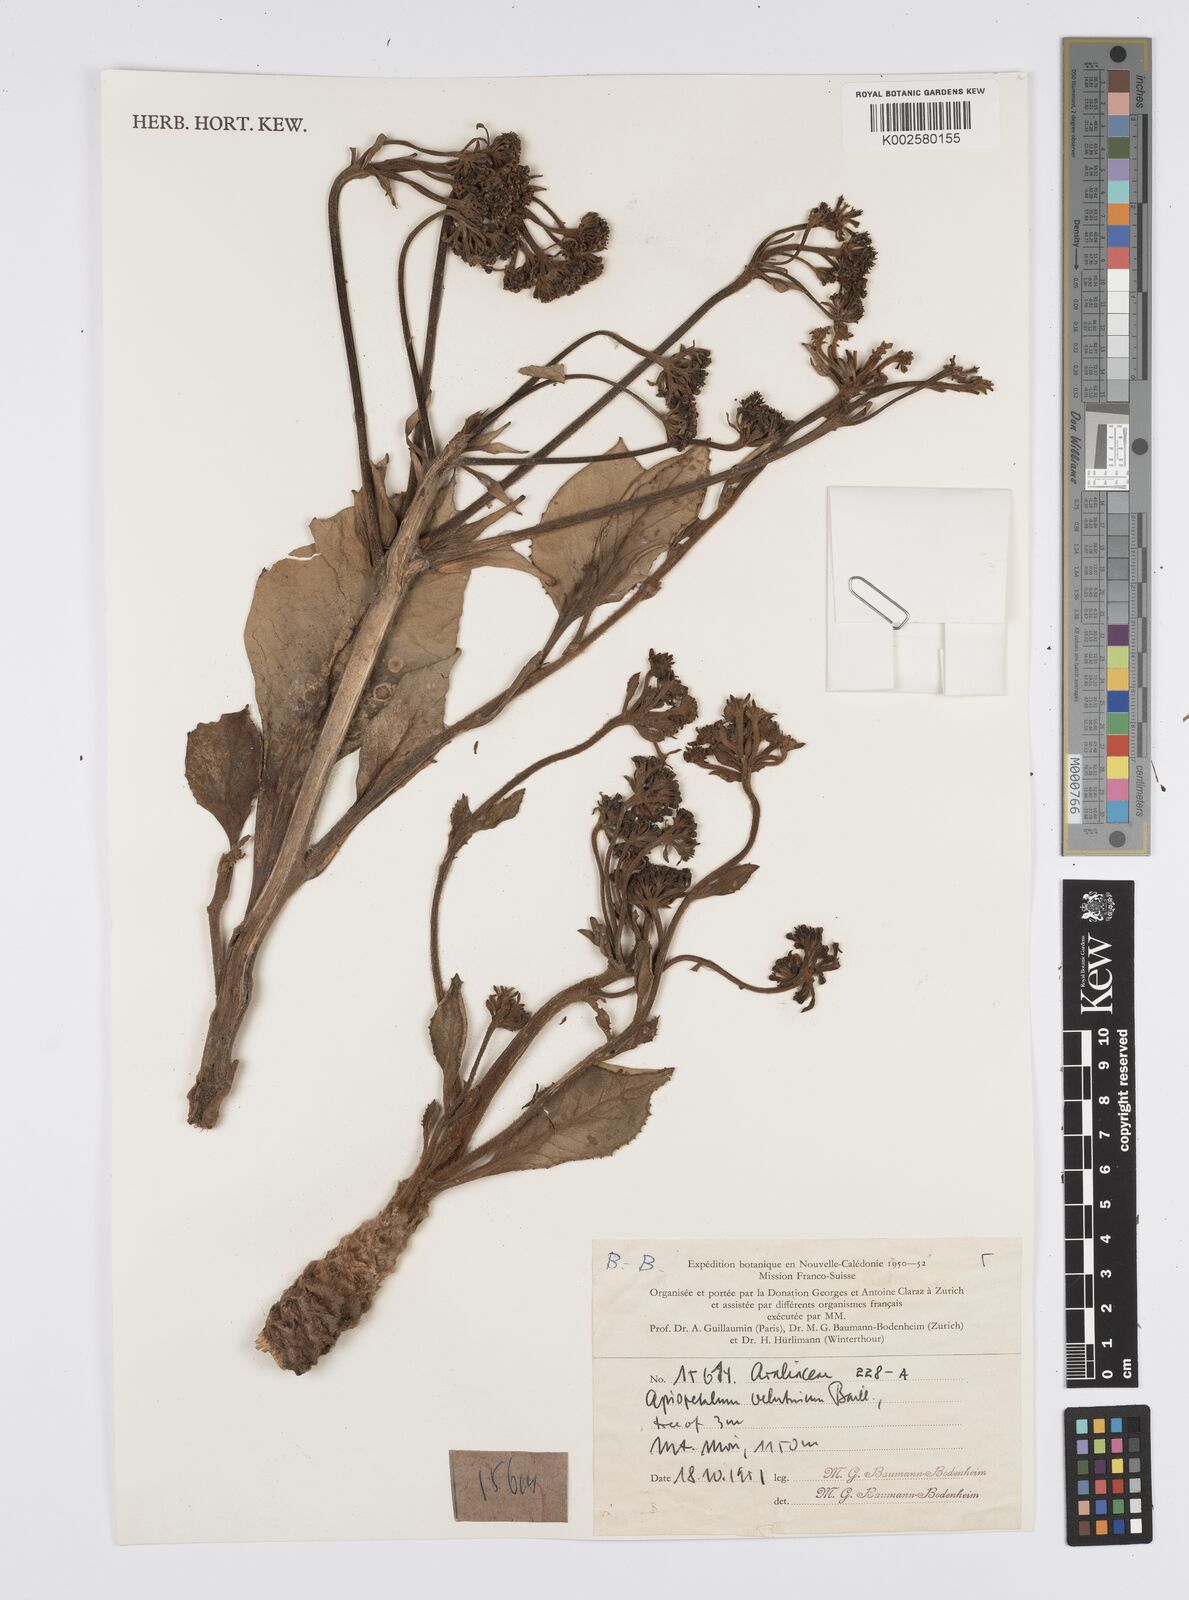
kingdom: Plantae
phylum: Tracheophyta
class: Magnoliopsida
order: Apiales
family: Apiaceae
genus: Apiopetalum
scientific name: Apiopetalum velutinum
